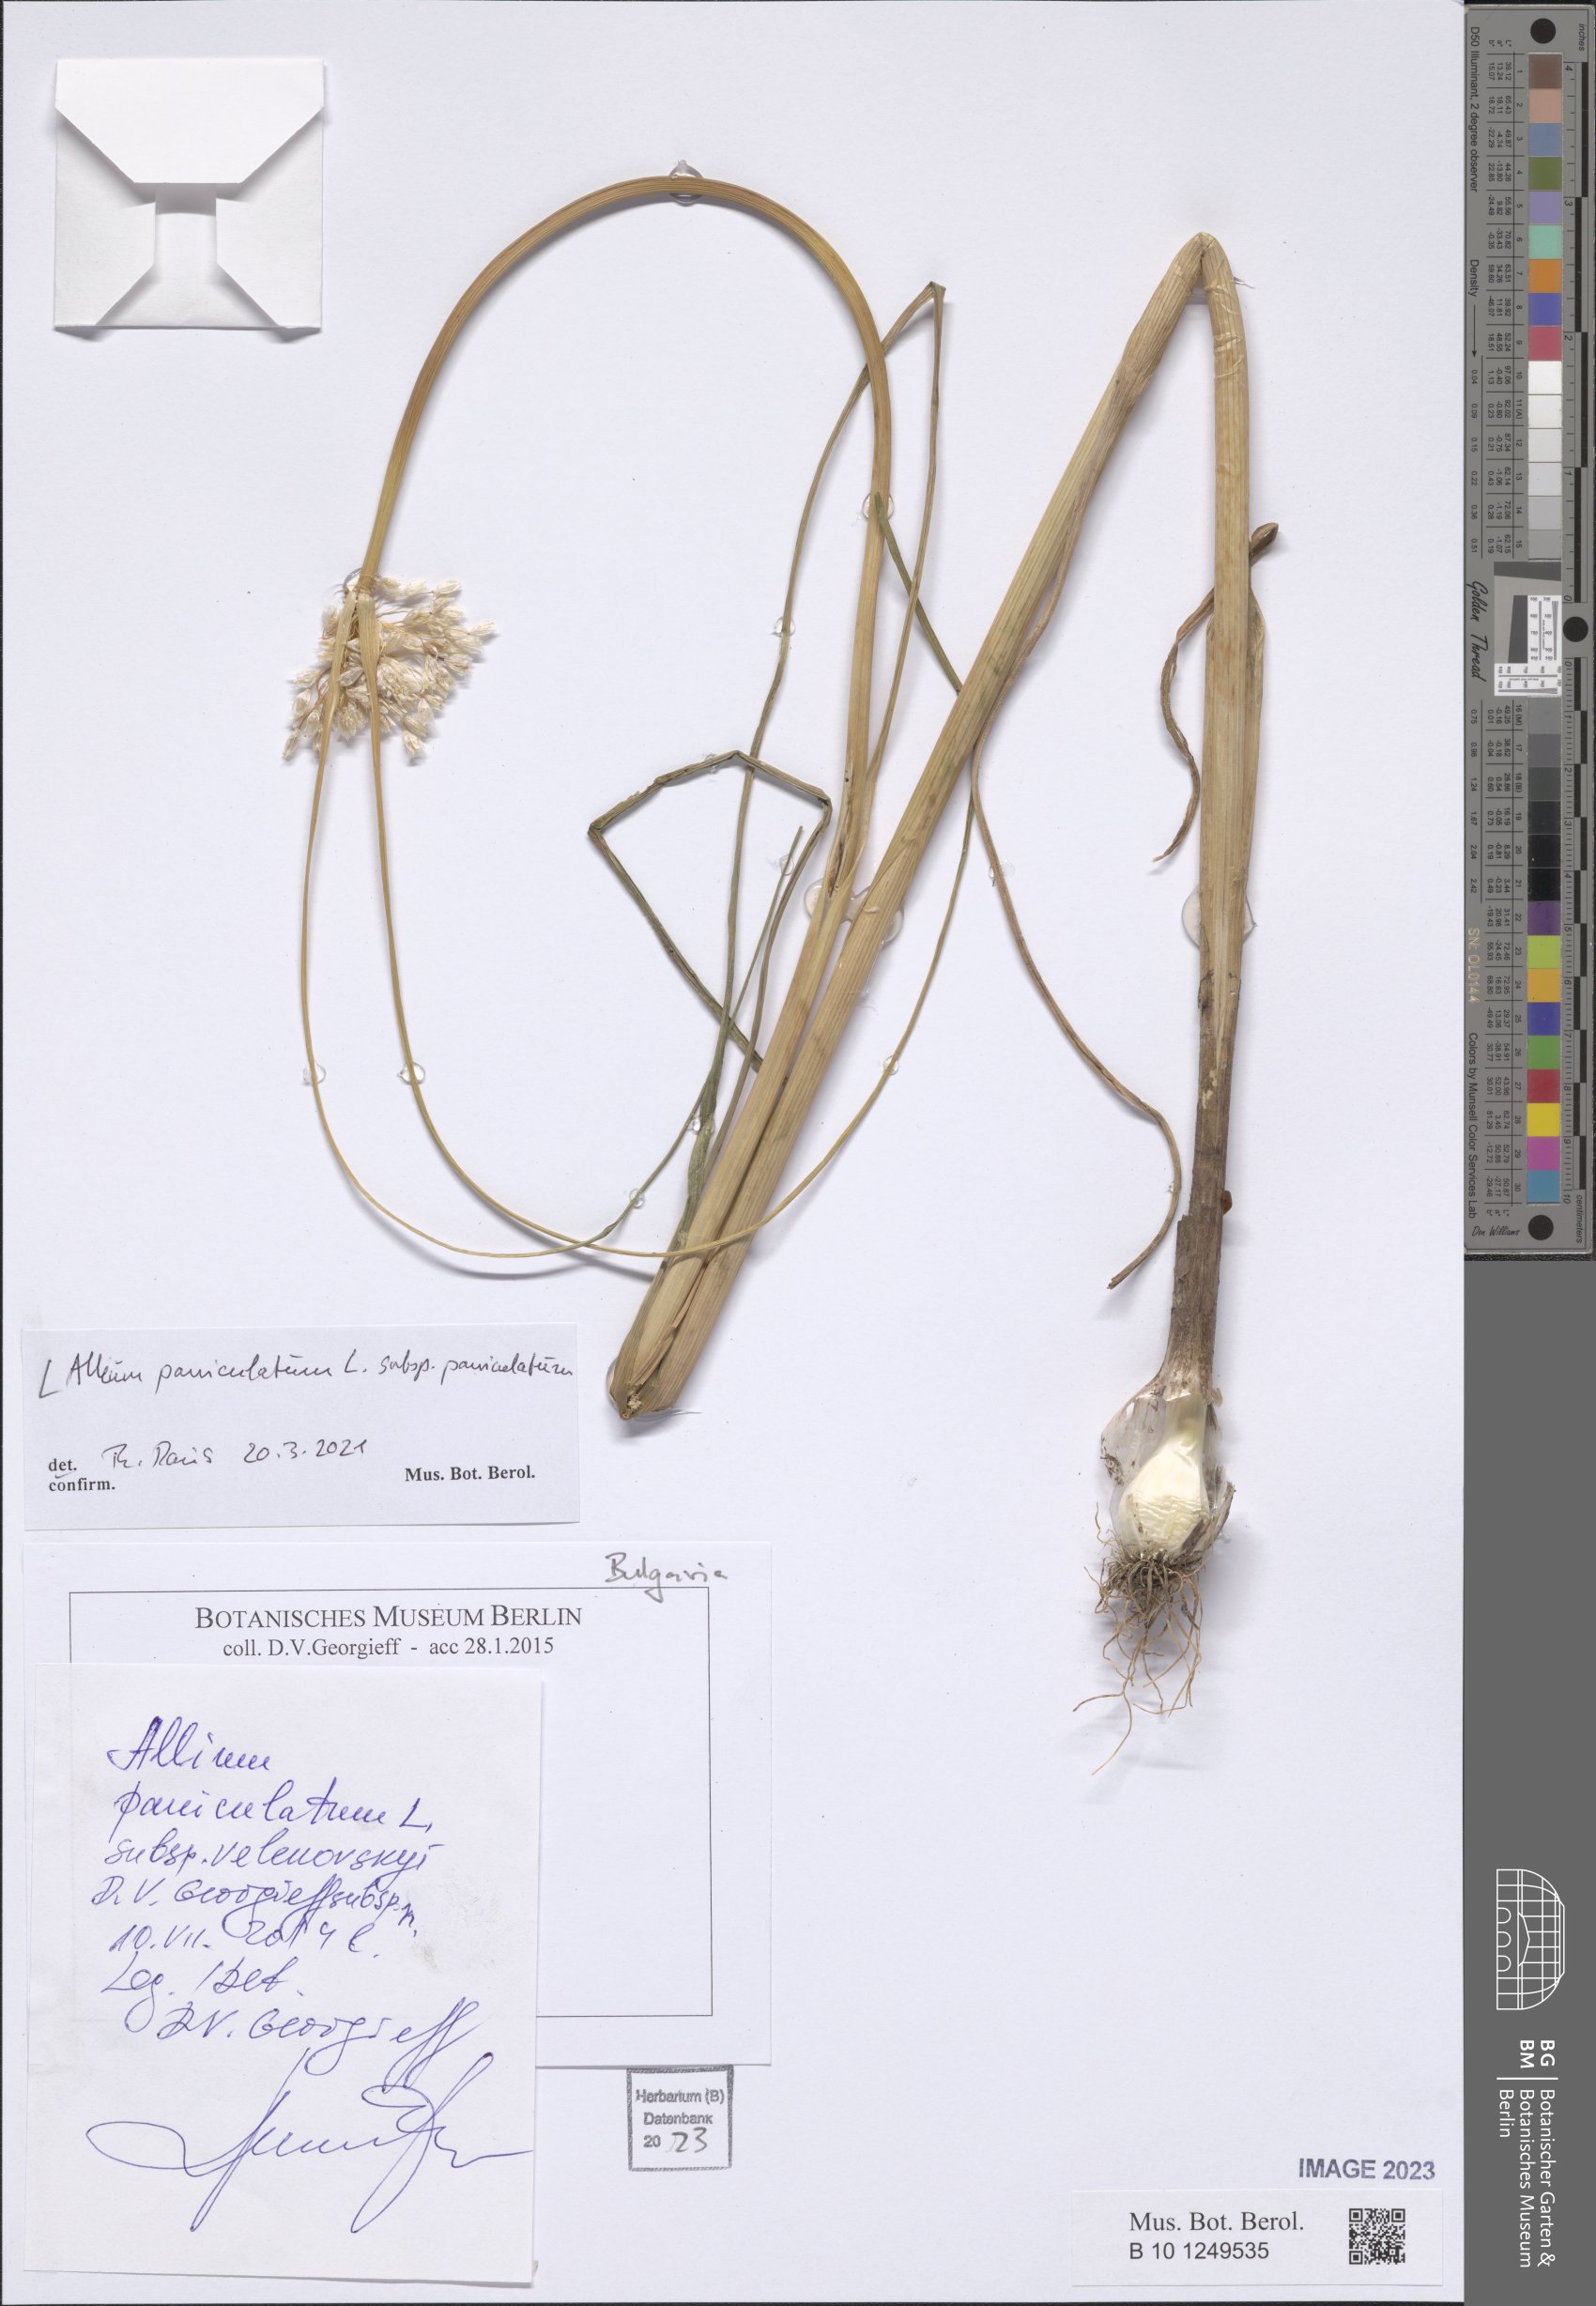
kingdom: Plantae
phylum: Tracheophyta
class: Liliopsida
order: Asparagales
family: Amaryllidaceae
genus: Allium
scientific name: Allium paniculatum
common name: Pale garlic
